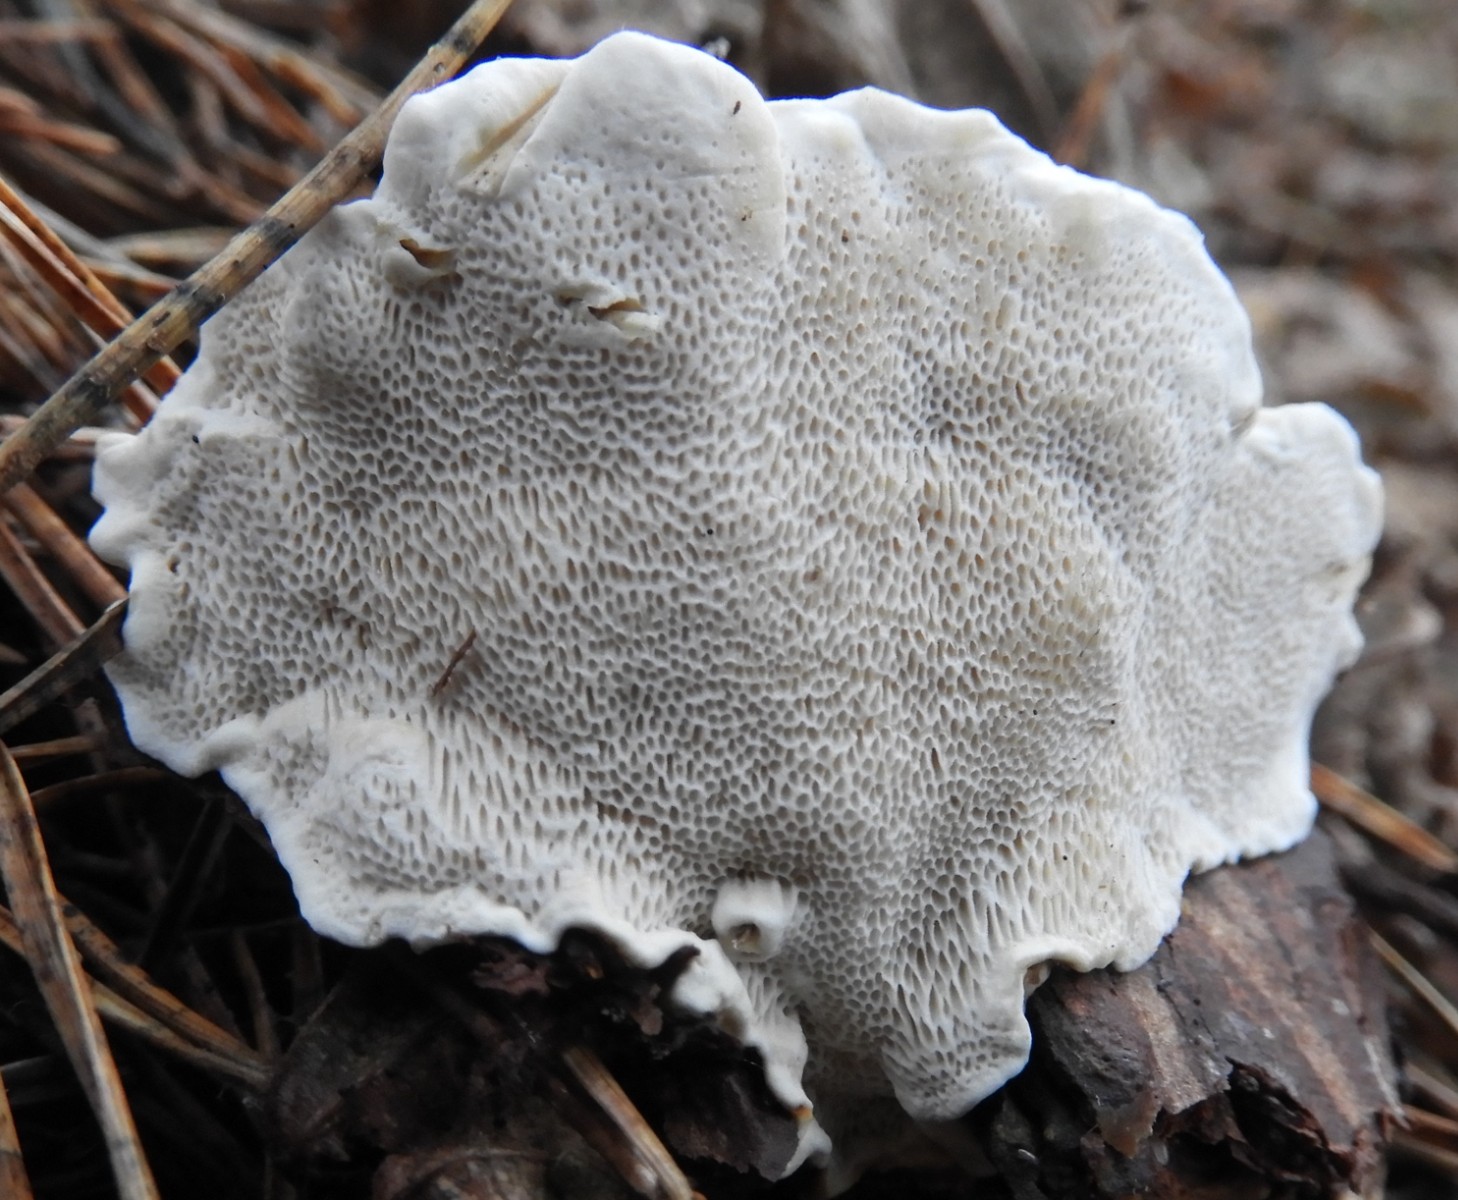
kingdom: Fungi
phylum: Basidiomycota
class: Agaricomycetes
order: Russulales
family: Bondarzewiaceae
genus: Heterobasidion
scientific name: Heterobasidion annosum
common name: almindelig rodfordærver
